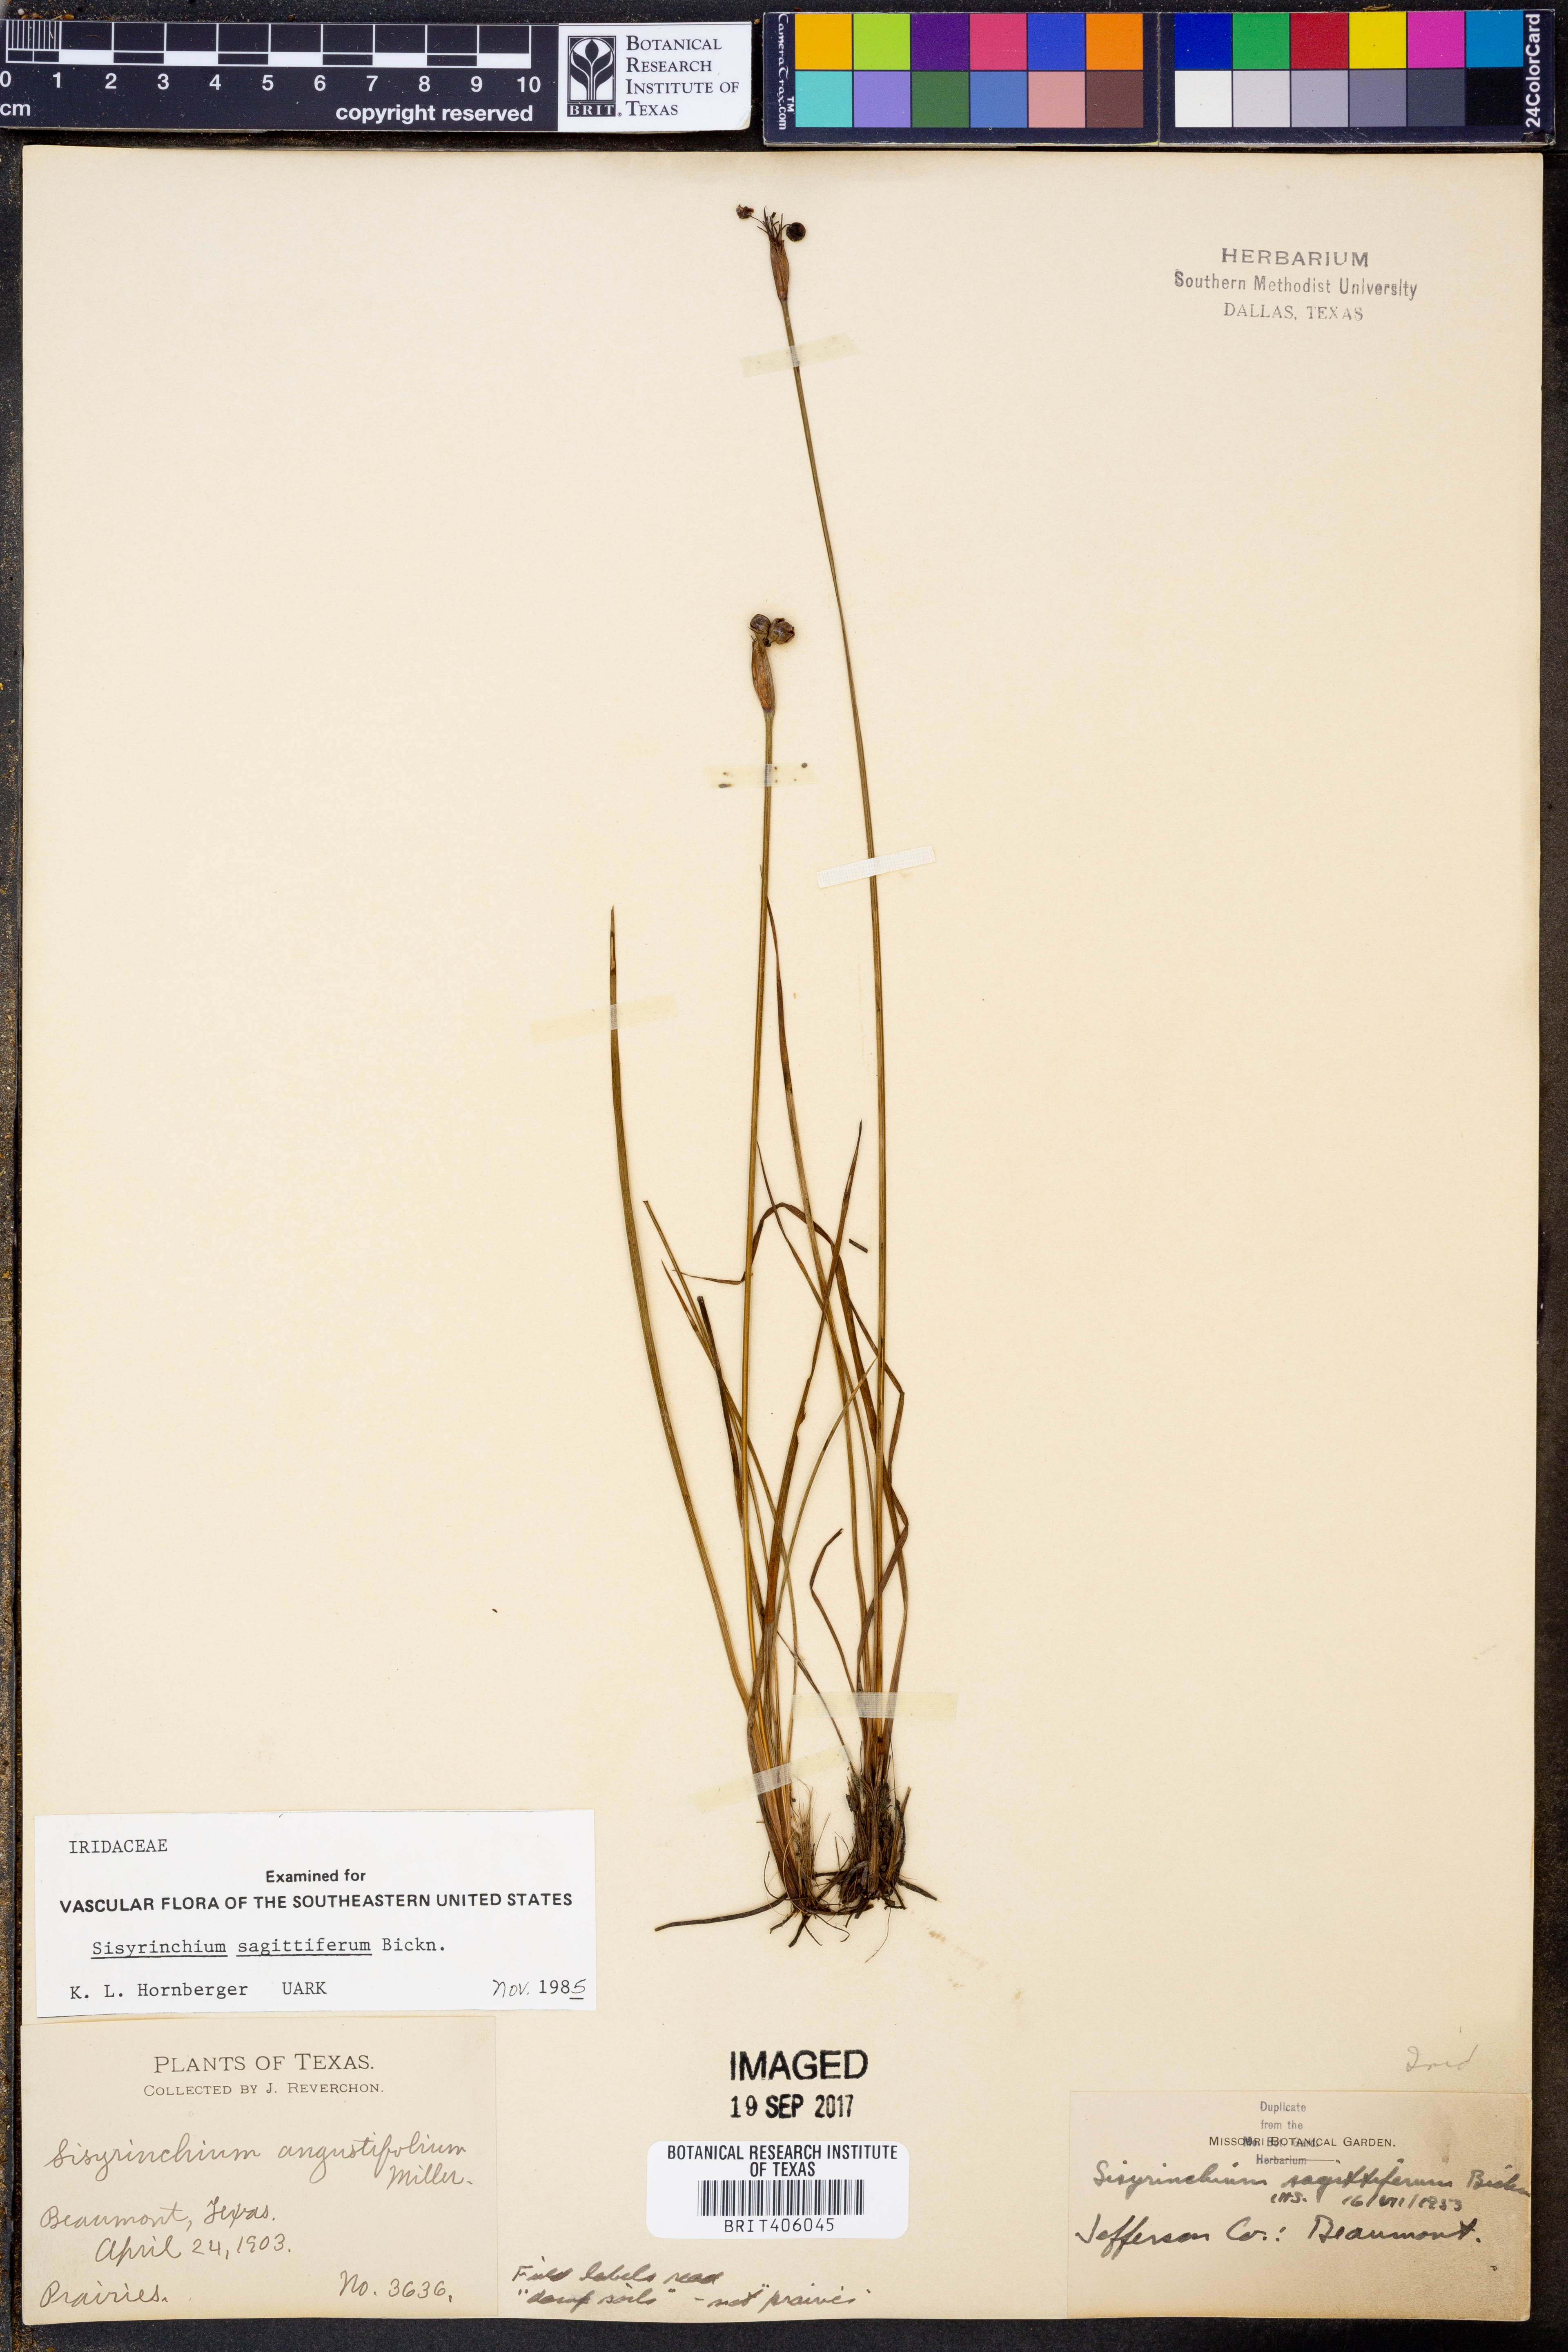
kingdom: Plantae
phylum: Tracheophyta
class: Liliopsida
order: Asparagales
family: Iridaceae
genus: Sisyrinchium
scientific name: Sisyrinchium sagittiferum
